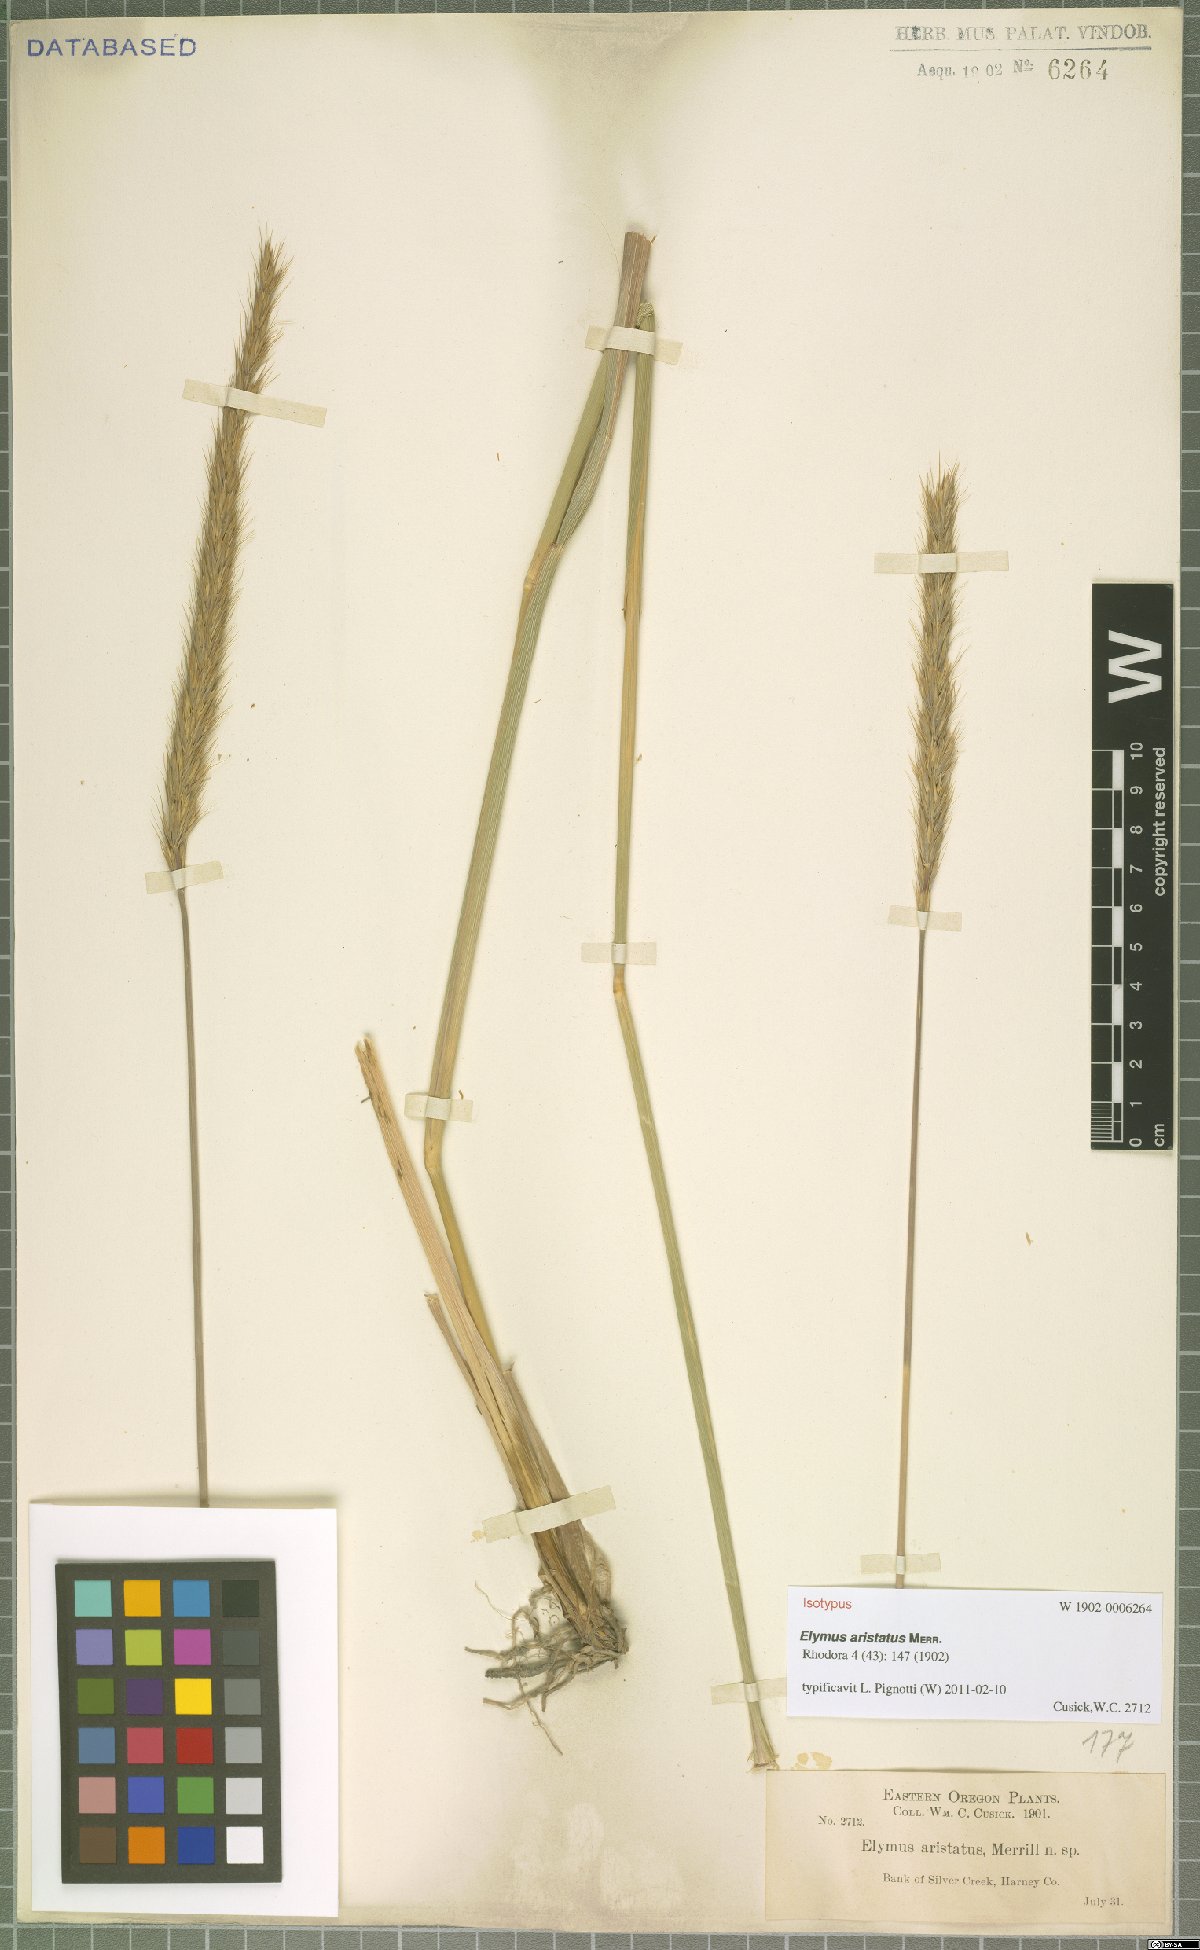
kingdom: Plantae
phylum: Tracheophyta
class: Liliopsida
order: Poales
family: Poaceae
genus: Elyleymus
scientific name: Elyleymus aristatus
